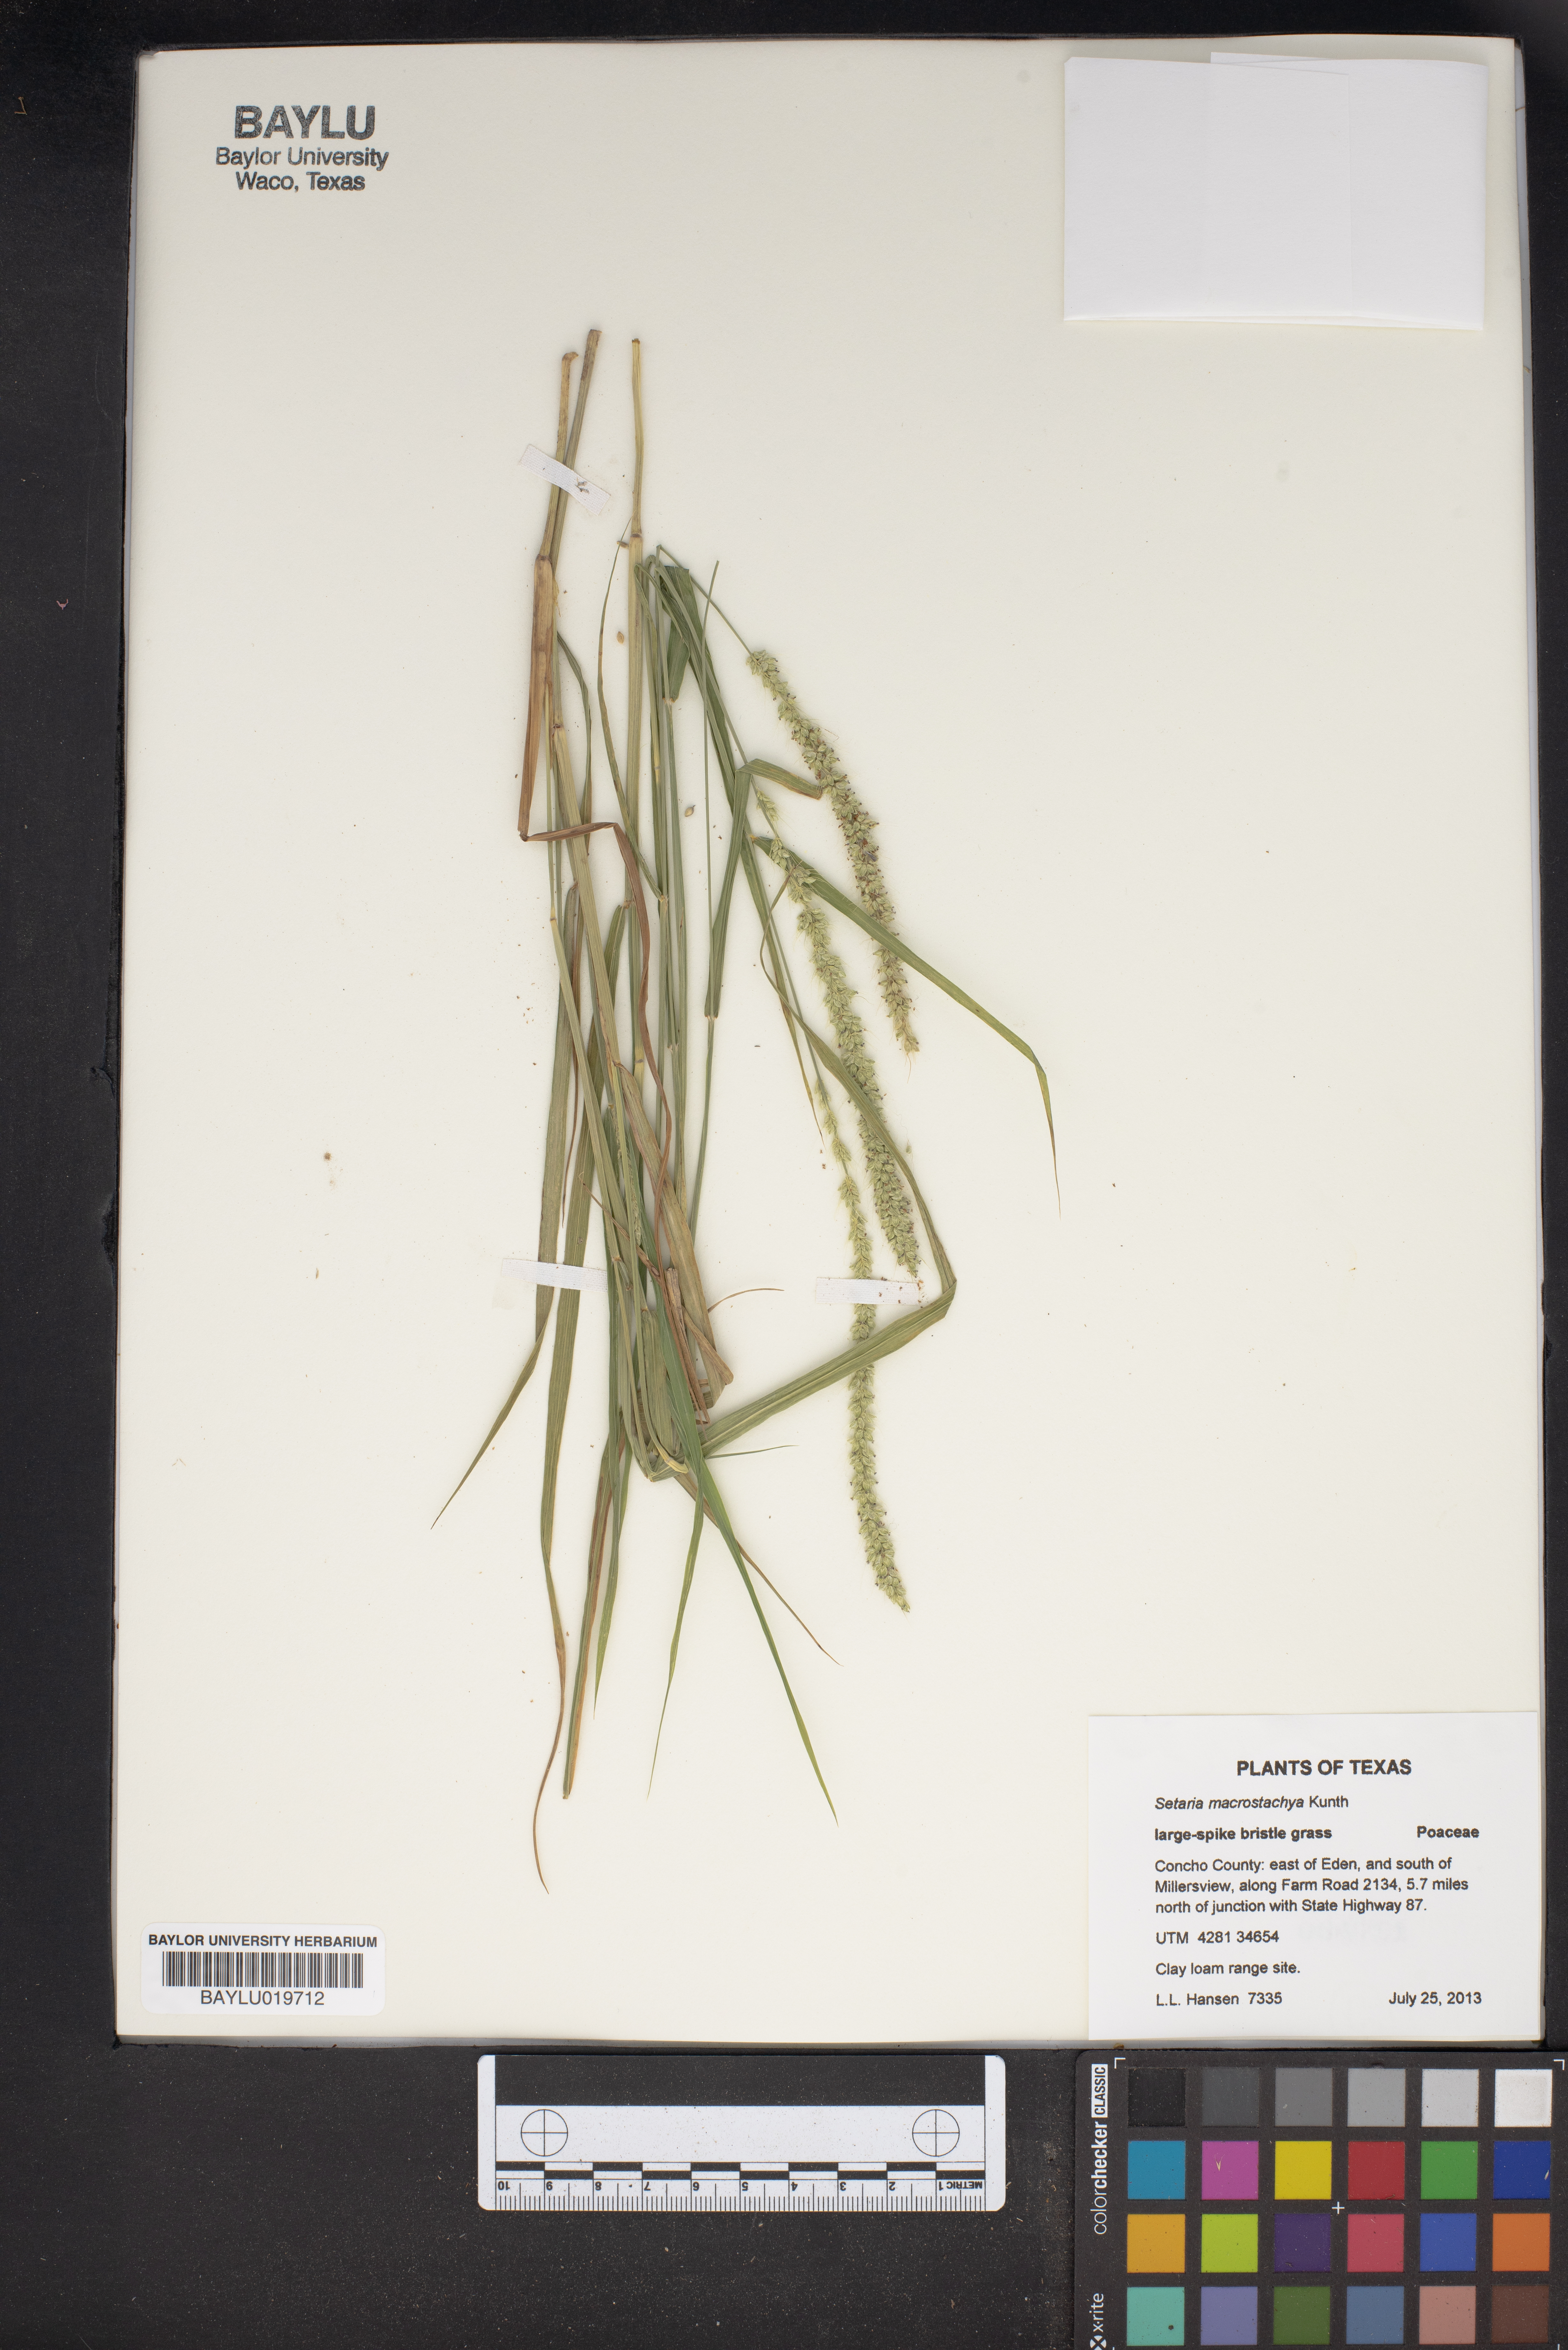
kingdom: Plantae
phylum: Tracheophyta
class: Liliopsida
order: Poales
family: Poaceae
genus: Setaria
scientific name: Setaria macrostachya
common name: Plains bristle grass
